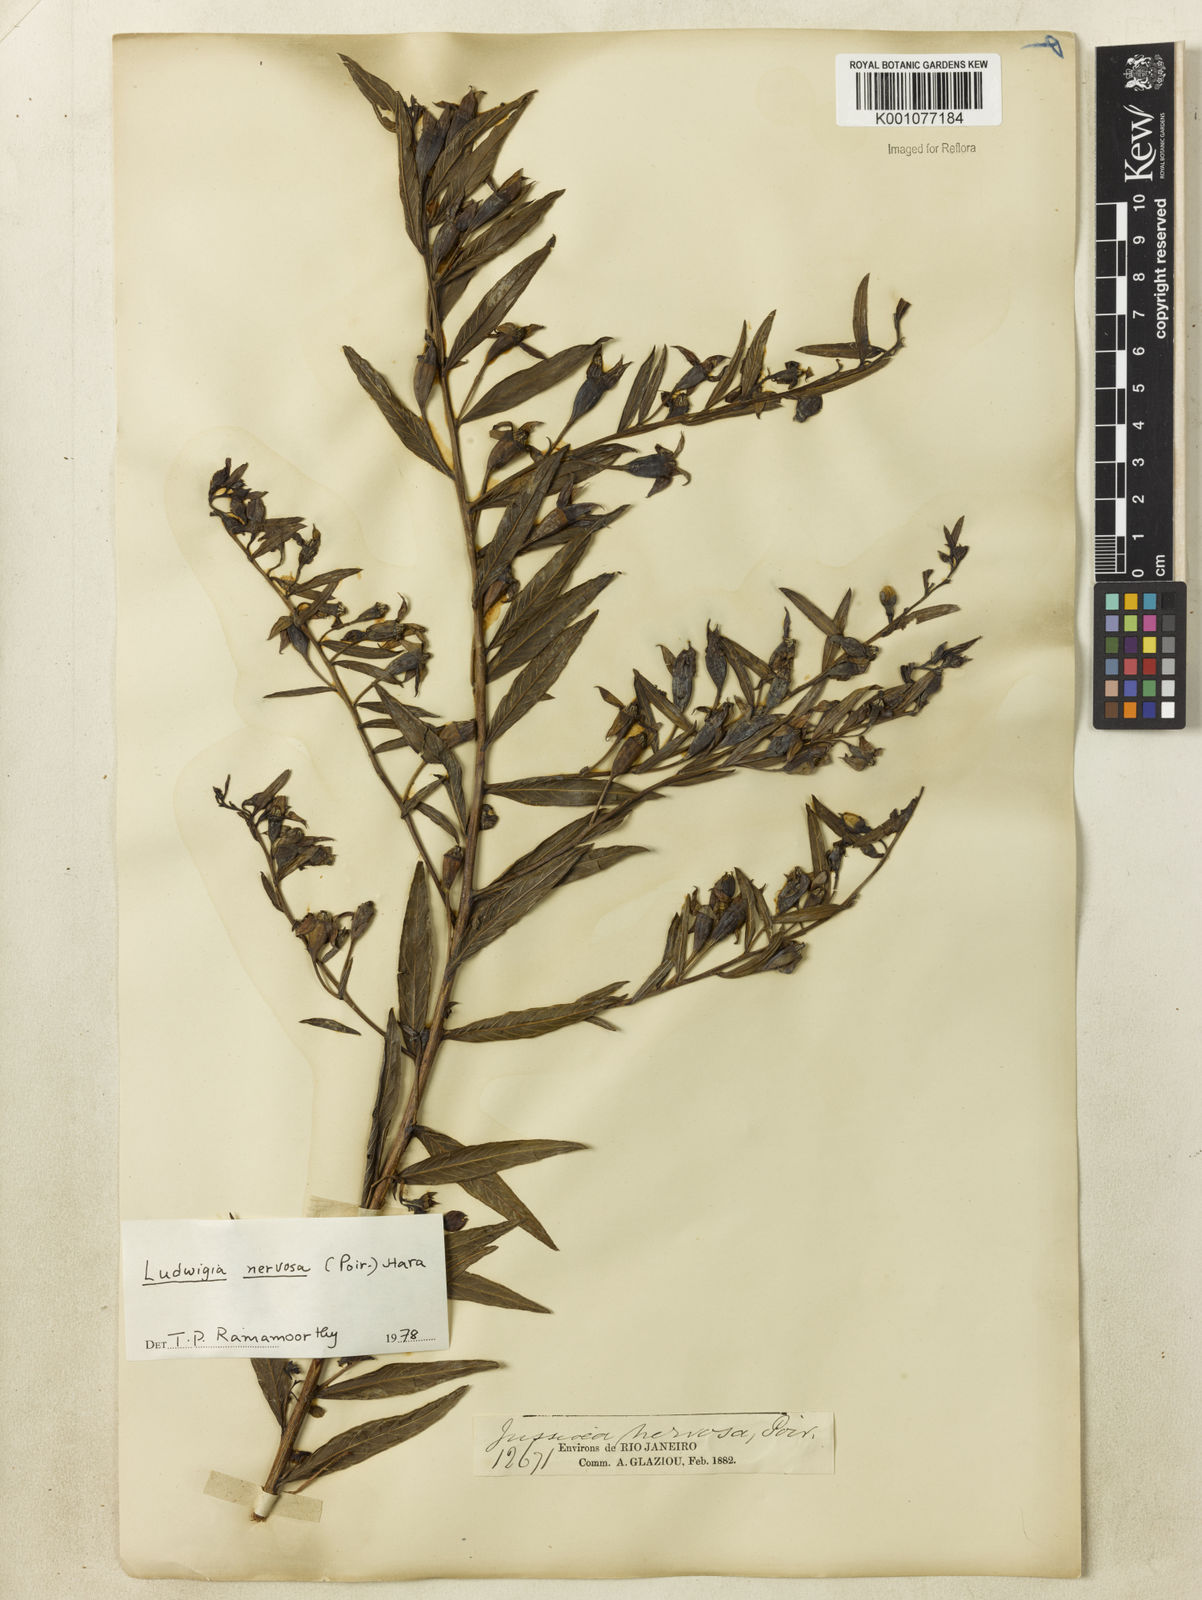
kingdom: Plantae
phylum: Tracheophyta
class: Magnoliopsida
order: Myrtales
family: Onagraceae
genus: Ludwigia
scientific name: Ludwigia nervosa
